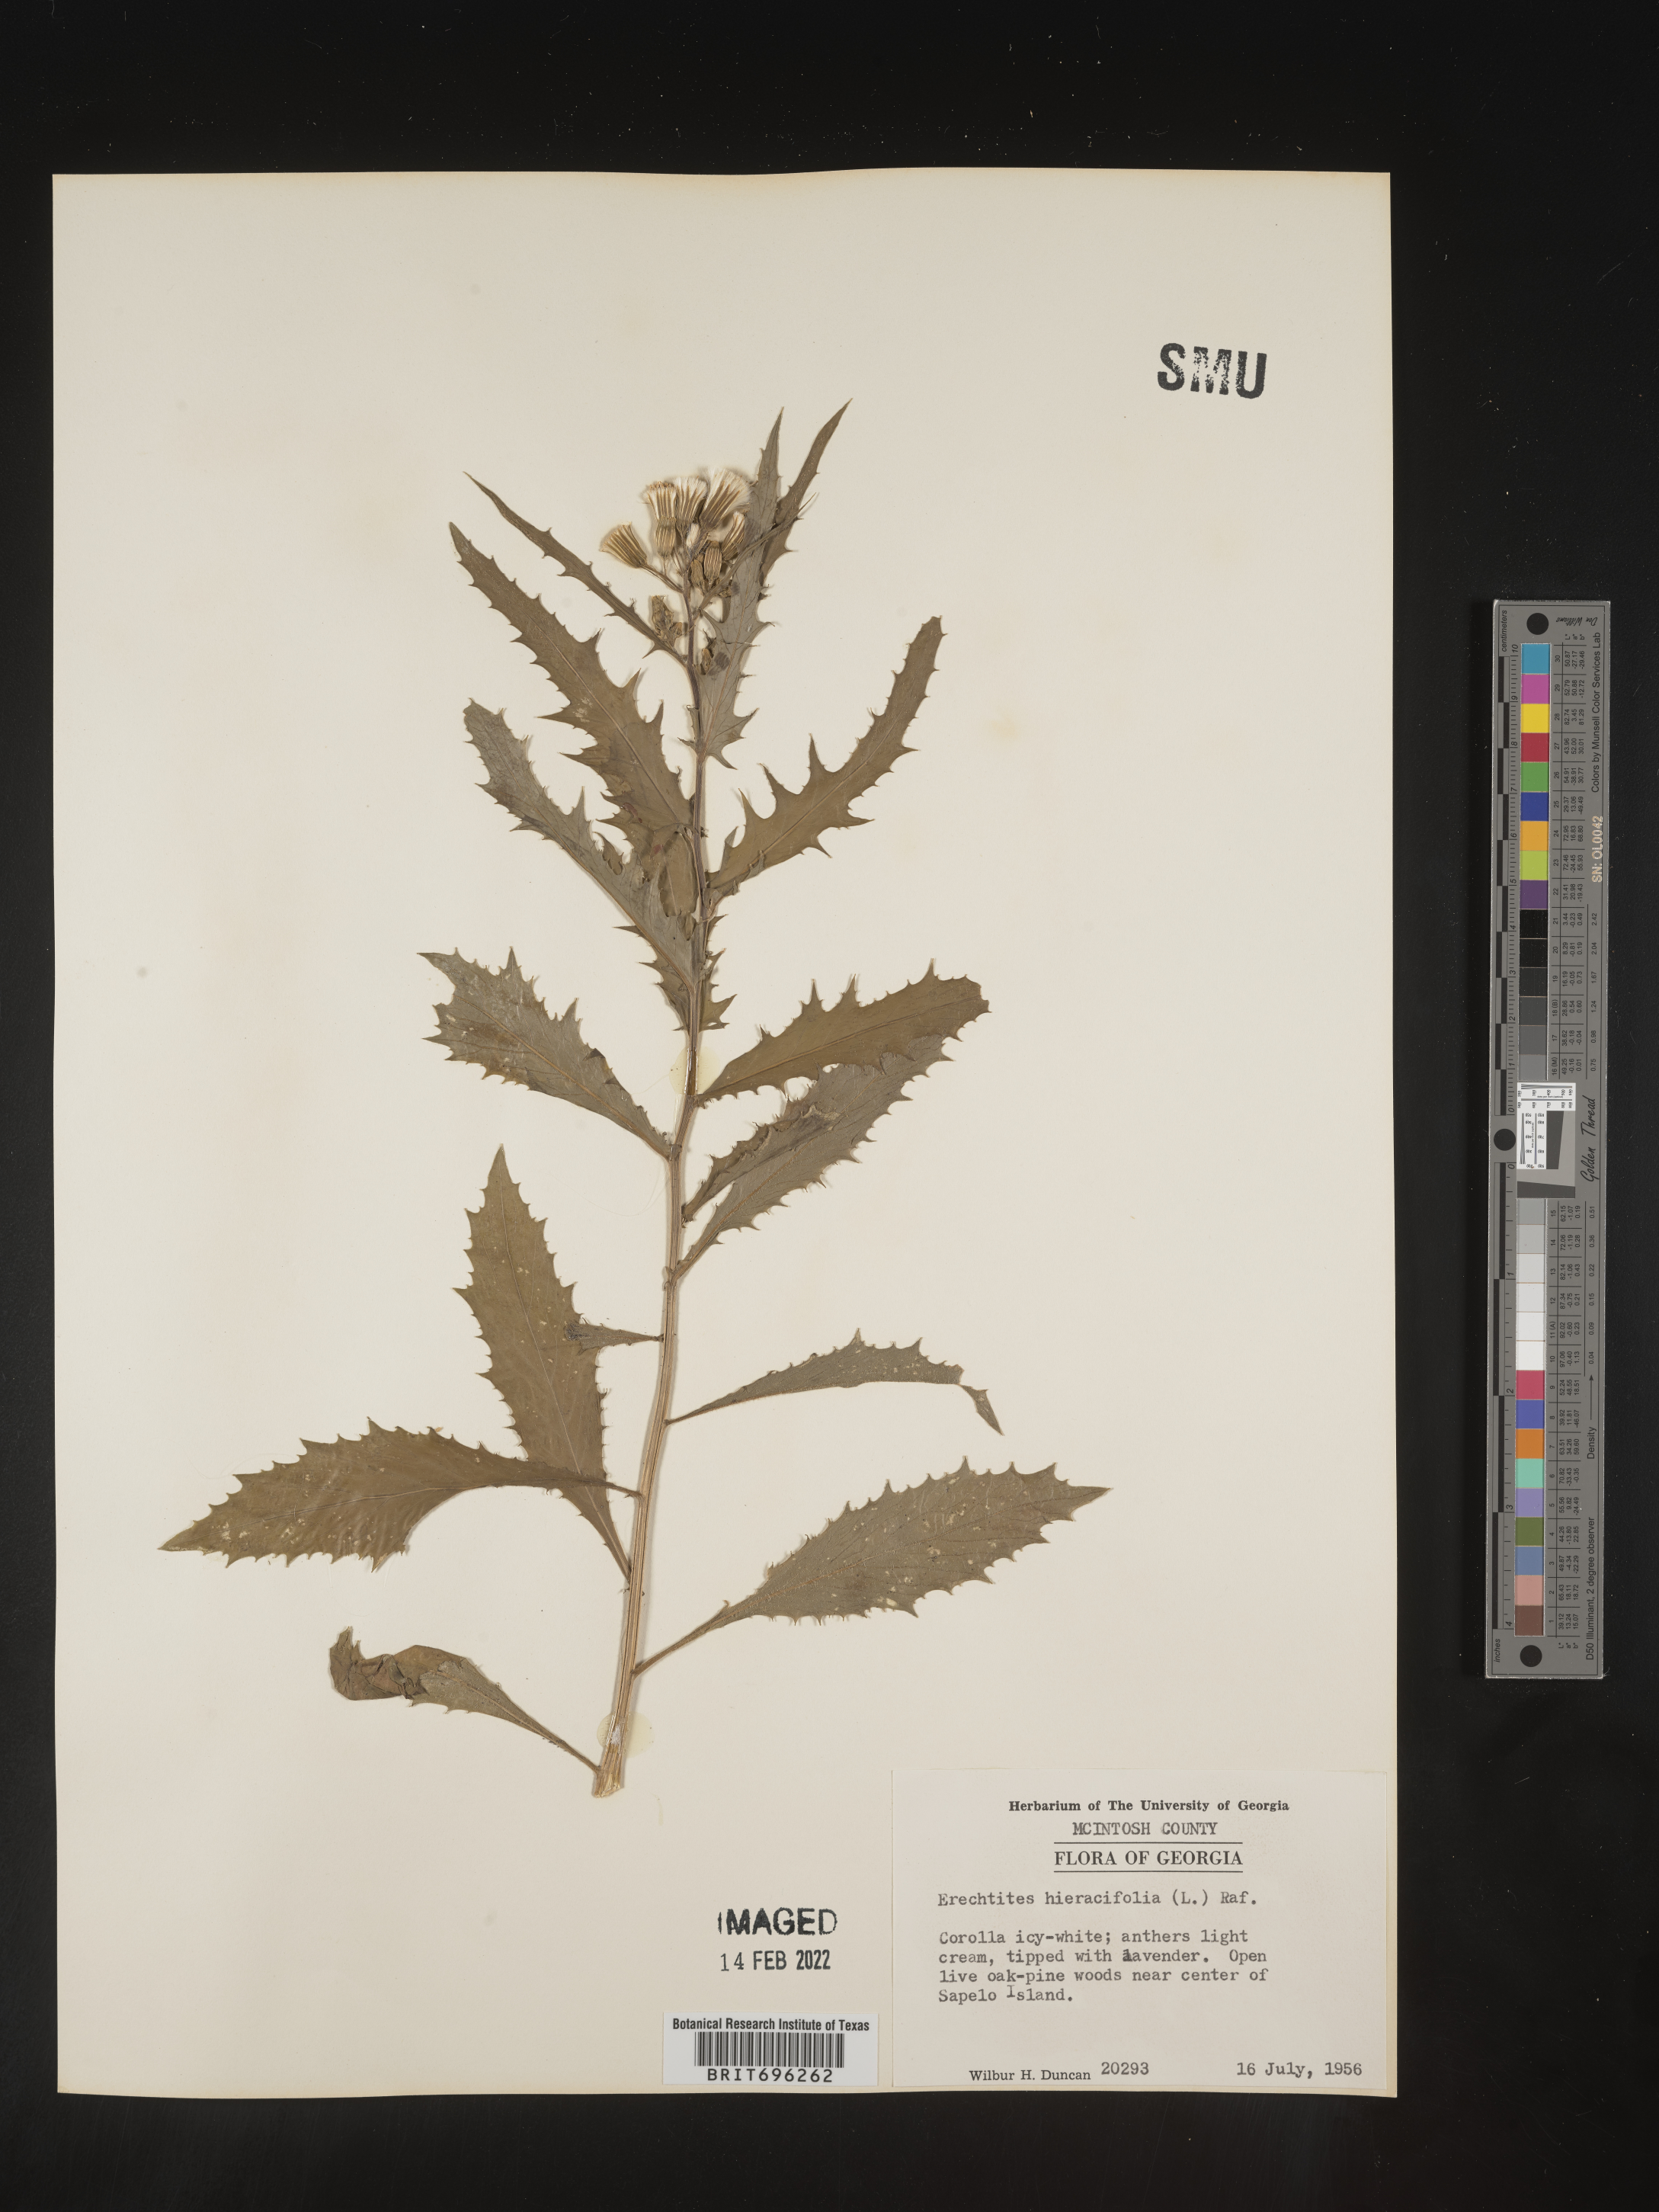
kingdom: Plantae
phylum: Tracheophyta
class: Magnoliopsida
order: Asterales
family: Asteraceae
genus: Erechtites
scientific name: Erechtites hieraciifolius
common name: American burnweed
